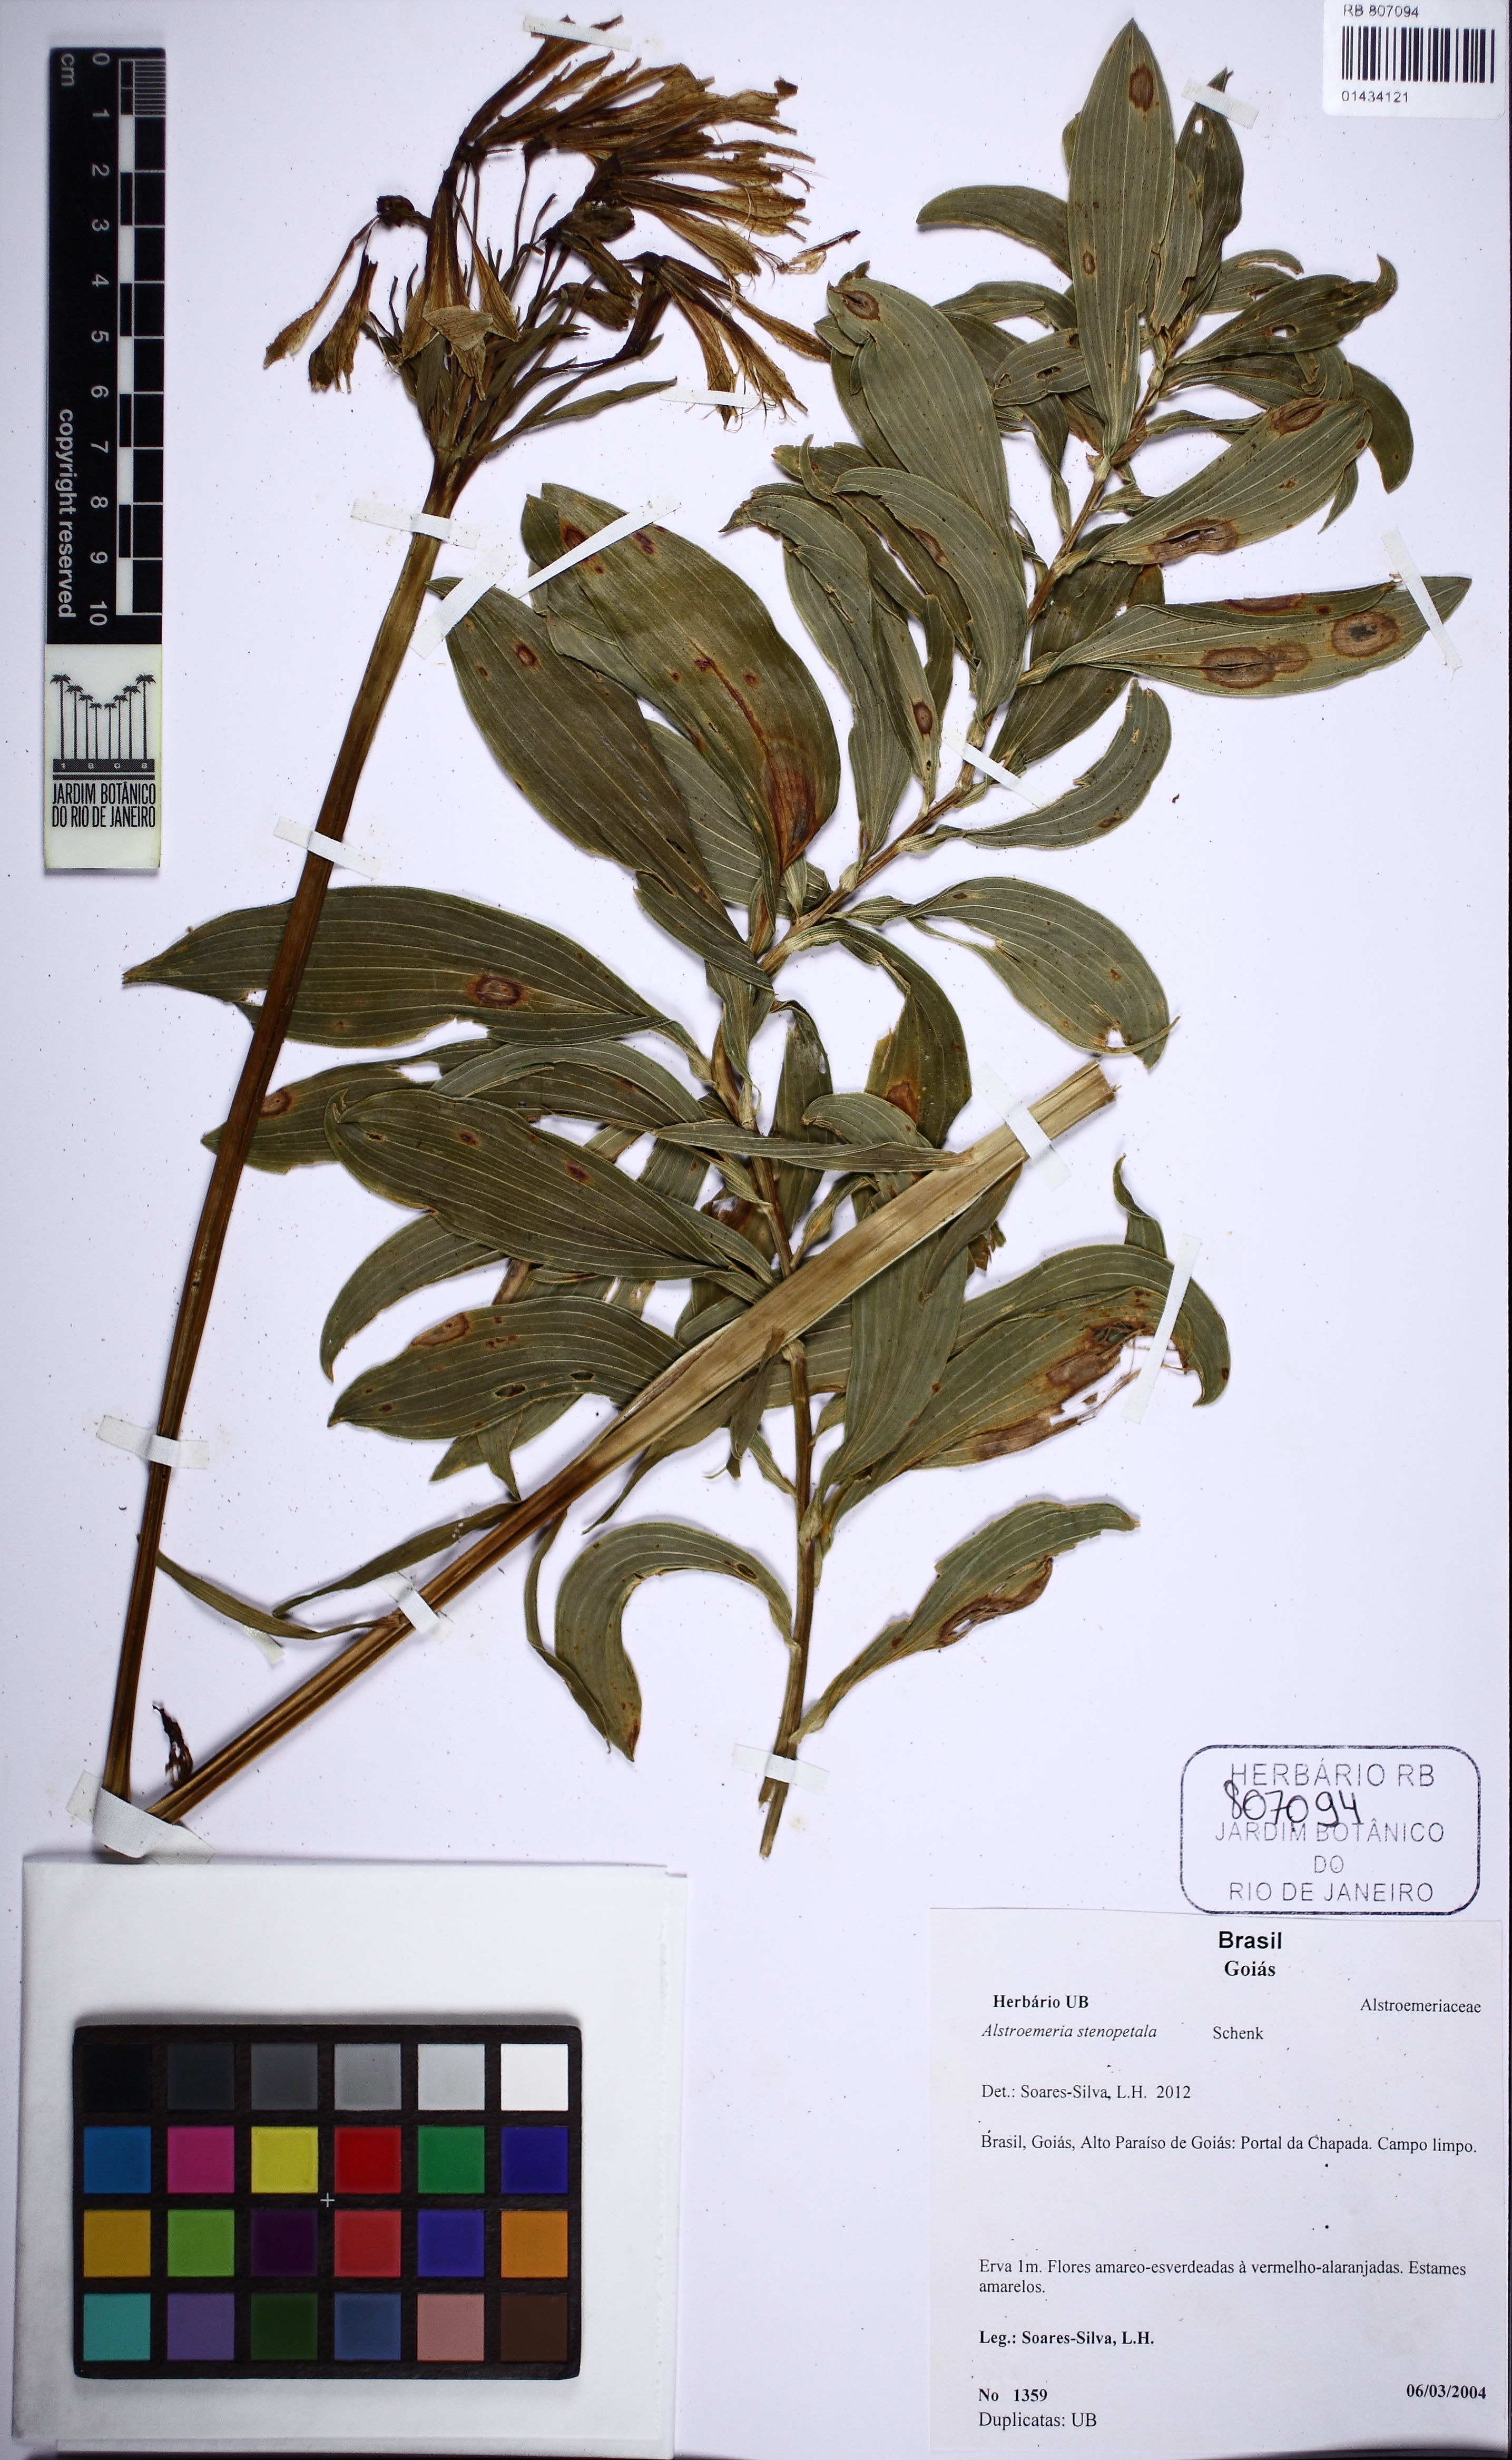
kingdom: Plantae
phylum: Tracheophyta
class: Liliopsida
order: Liliales
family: Alstroemeriaceae
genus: Alstroemeria
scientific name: Alstroemeria stenopetala
